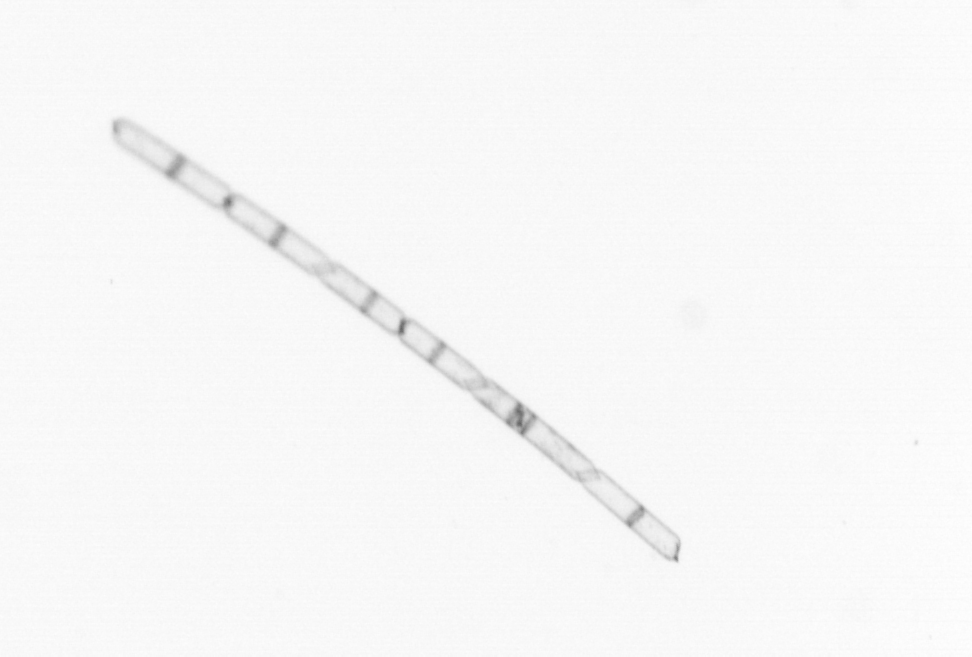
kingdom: Chromista
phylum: Ochrophyta
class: Bacillariophyceae
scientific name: Bacillariophyceae
